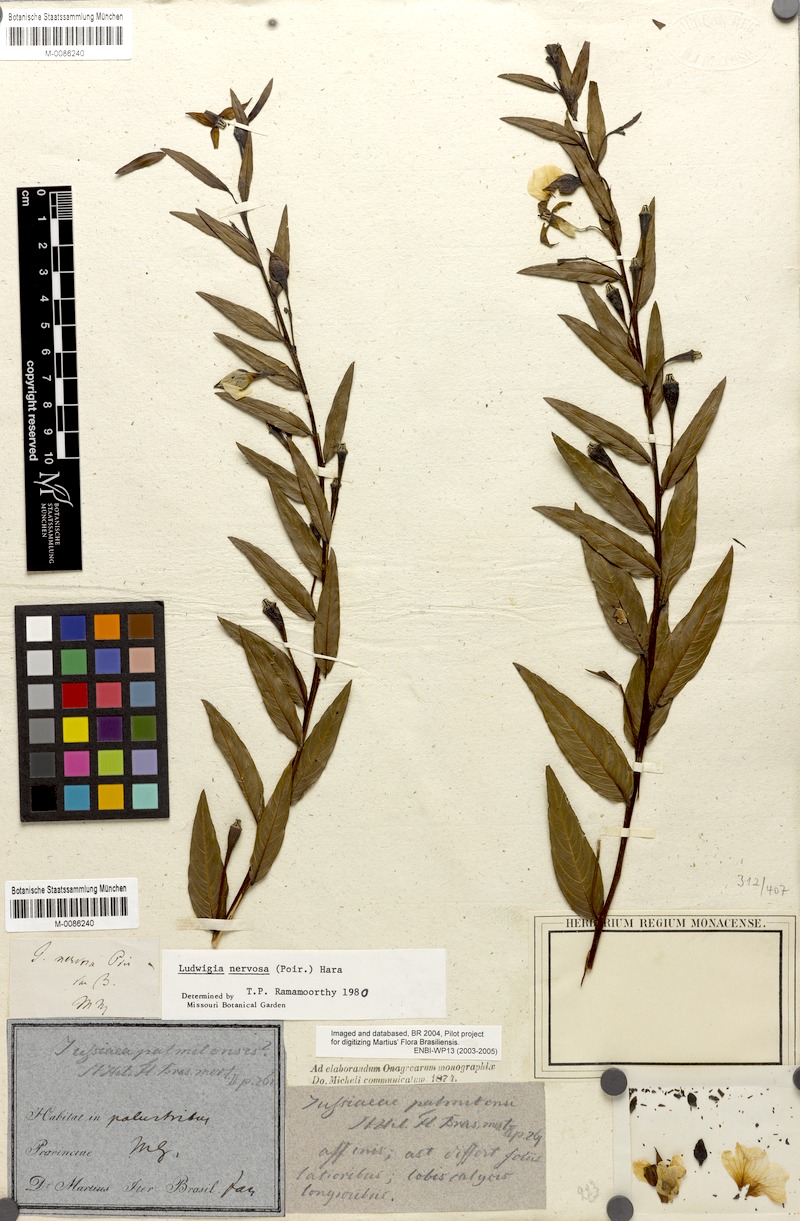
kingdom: Plantae
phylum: Tracheophyta
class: Magnoliopsida
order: Myrtales
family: Onagraceae
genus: Ludwigia
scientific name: Ludwigia nervosa
